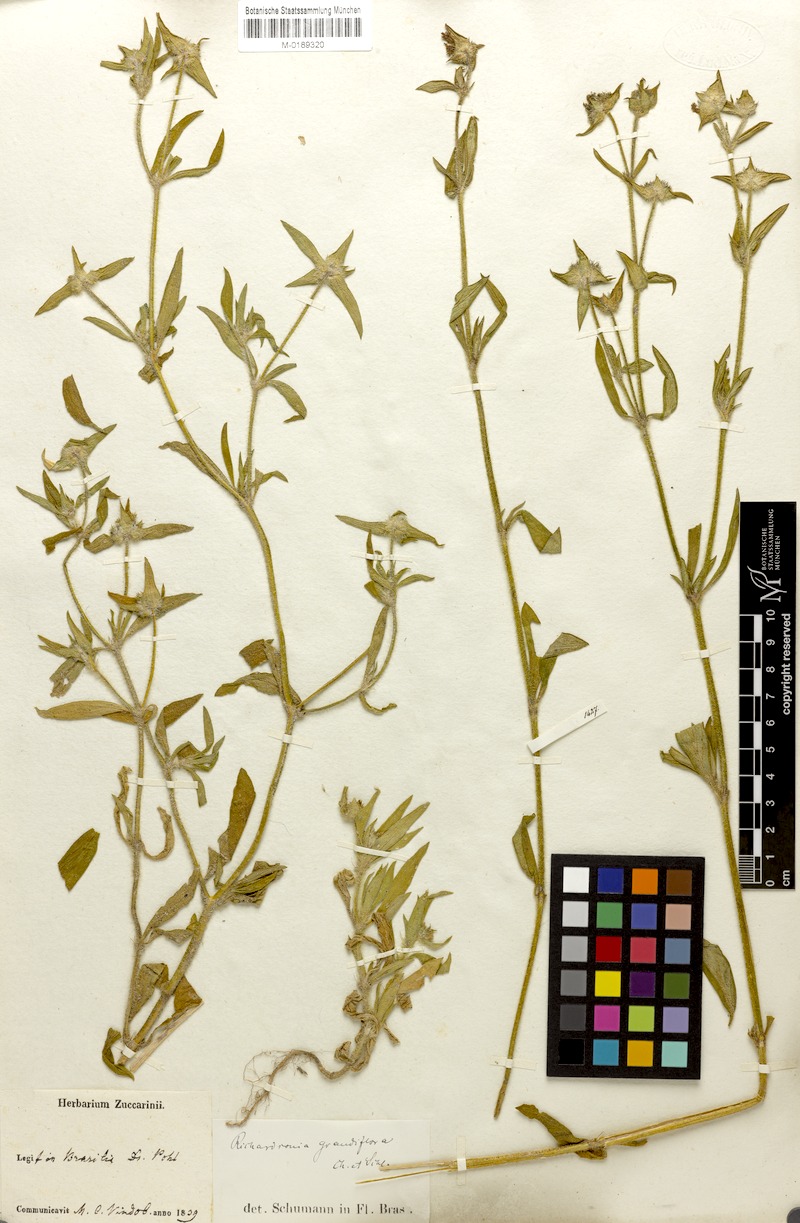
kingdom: Plantae
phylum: Tracheophyta
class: Magnoliopsida
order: Gentianales
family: Rubiaceae
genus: Richardia
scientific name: Richardia grandiflora
